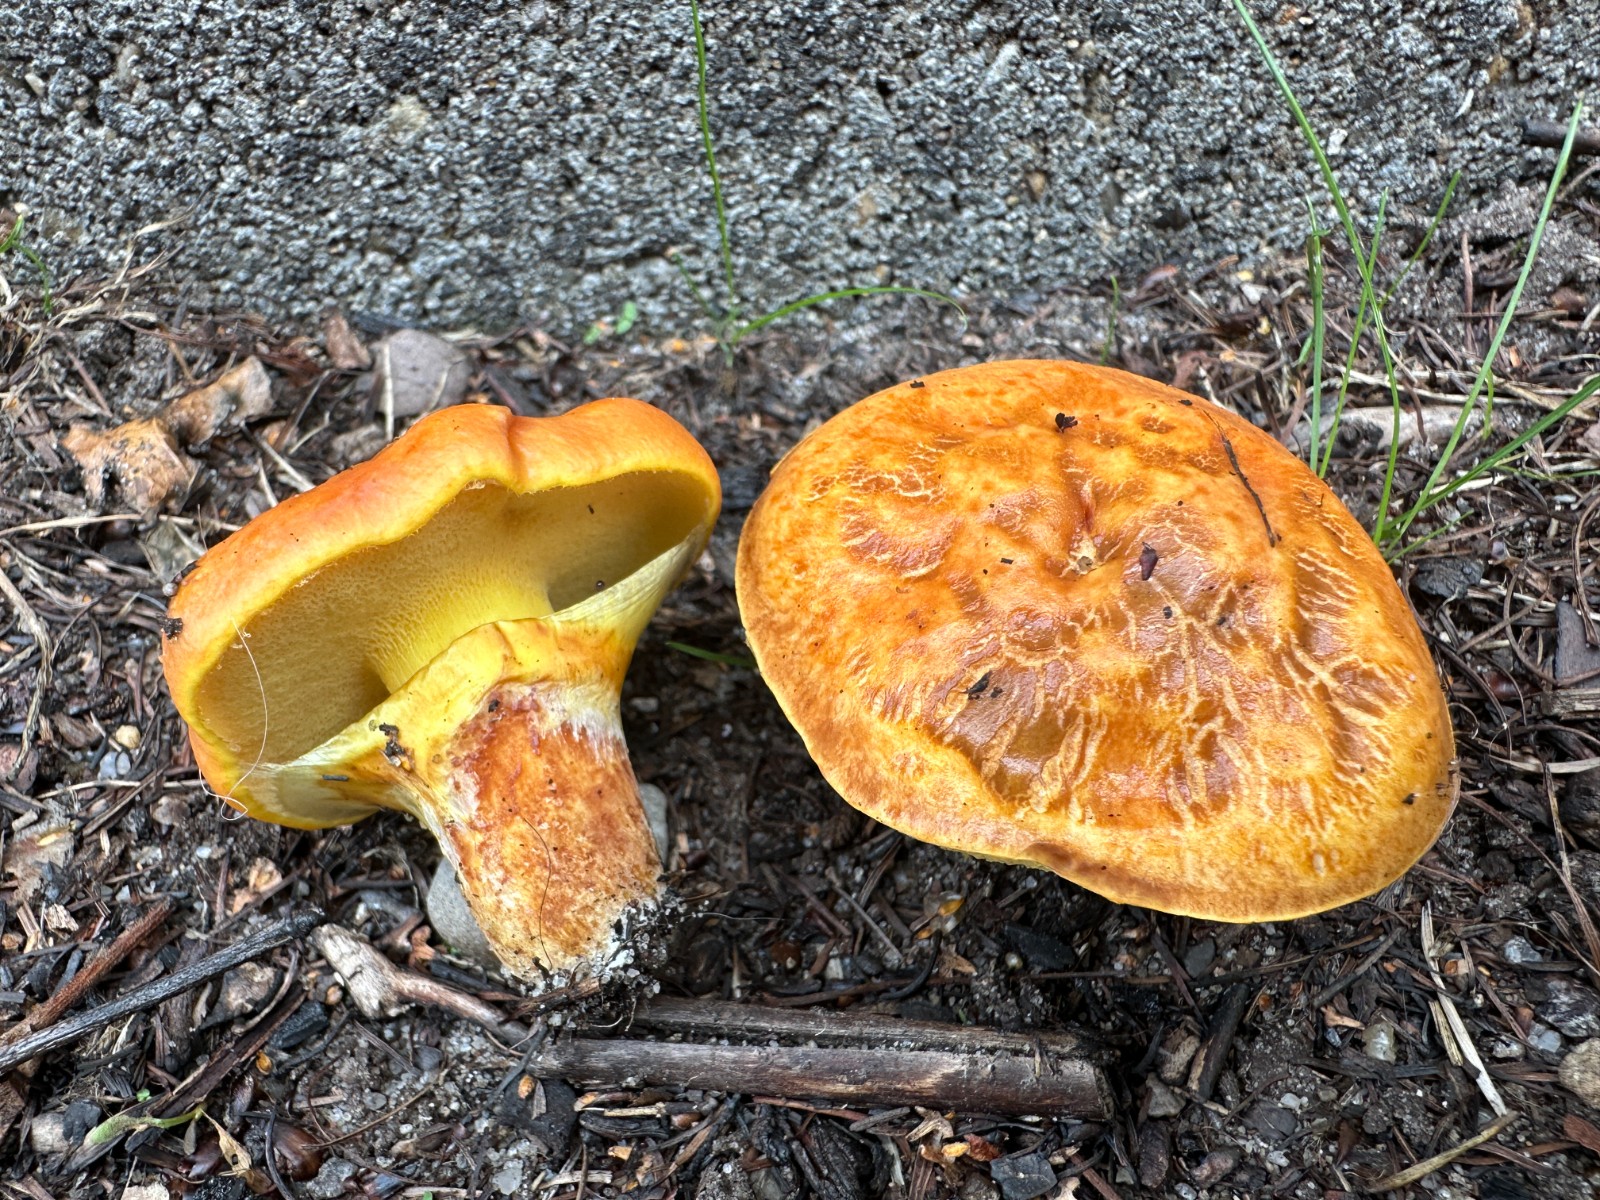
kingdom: Fungi
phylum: Basidiomycota
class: Agaricomycetes
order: Boletales
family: Suillaceae
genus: Suillus
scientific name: Suillus grevillei
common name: lærke-slimrørhat
